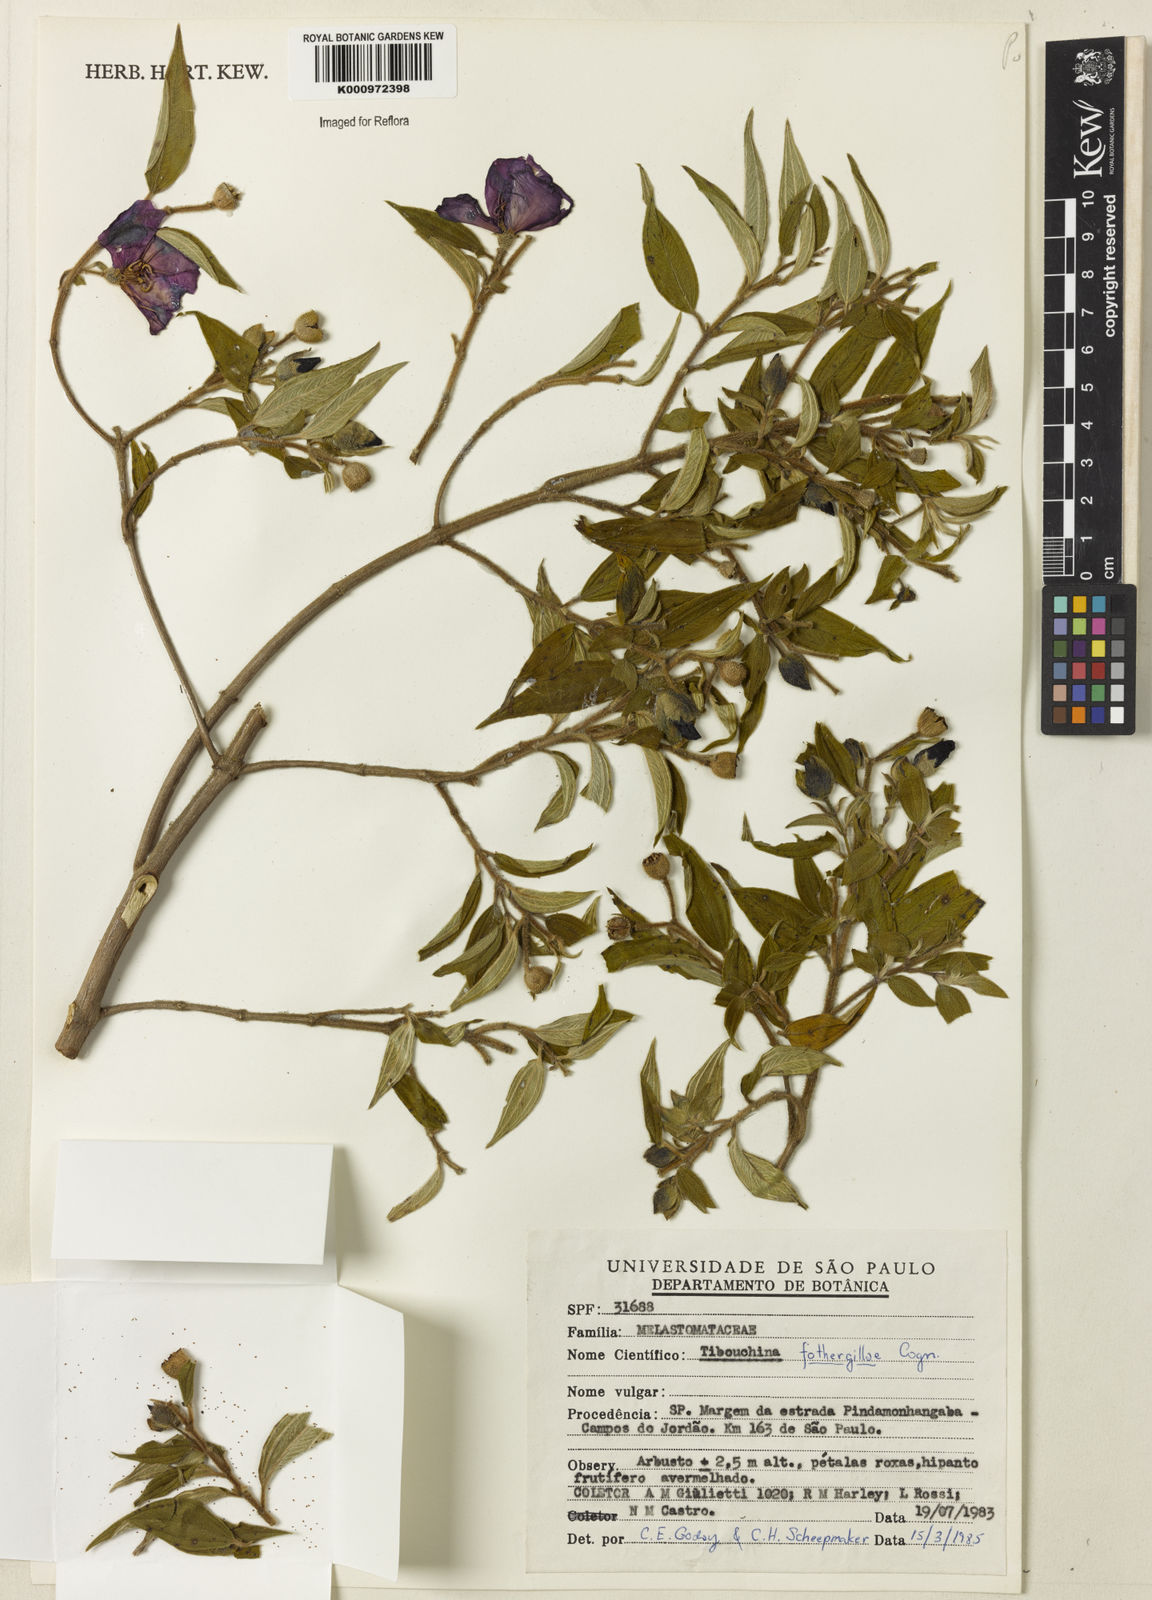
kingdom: Plantae
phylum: Tracheophyta
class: Magnoliopsida
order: Myrtales
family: Melastomataceae
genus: Pleroma
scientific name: Pleroma fothergillae
